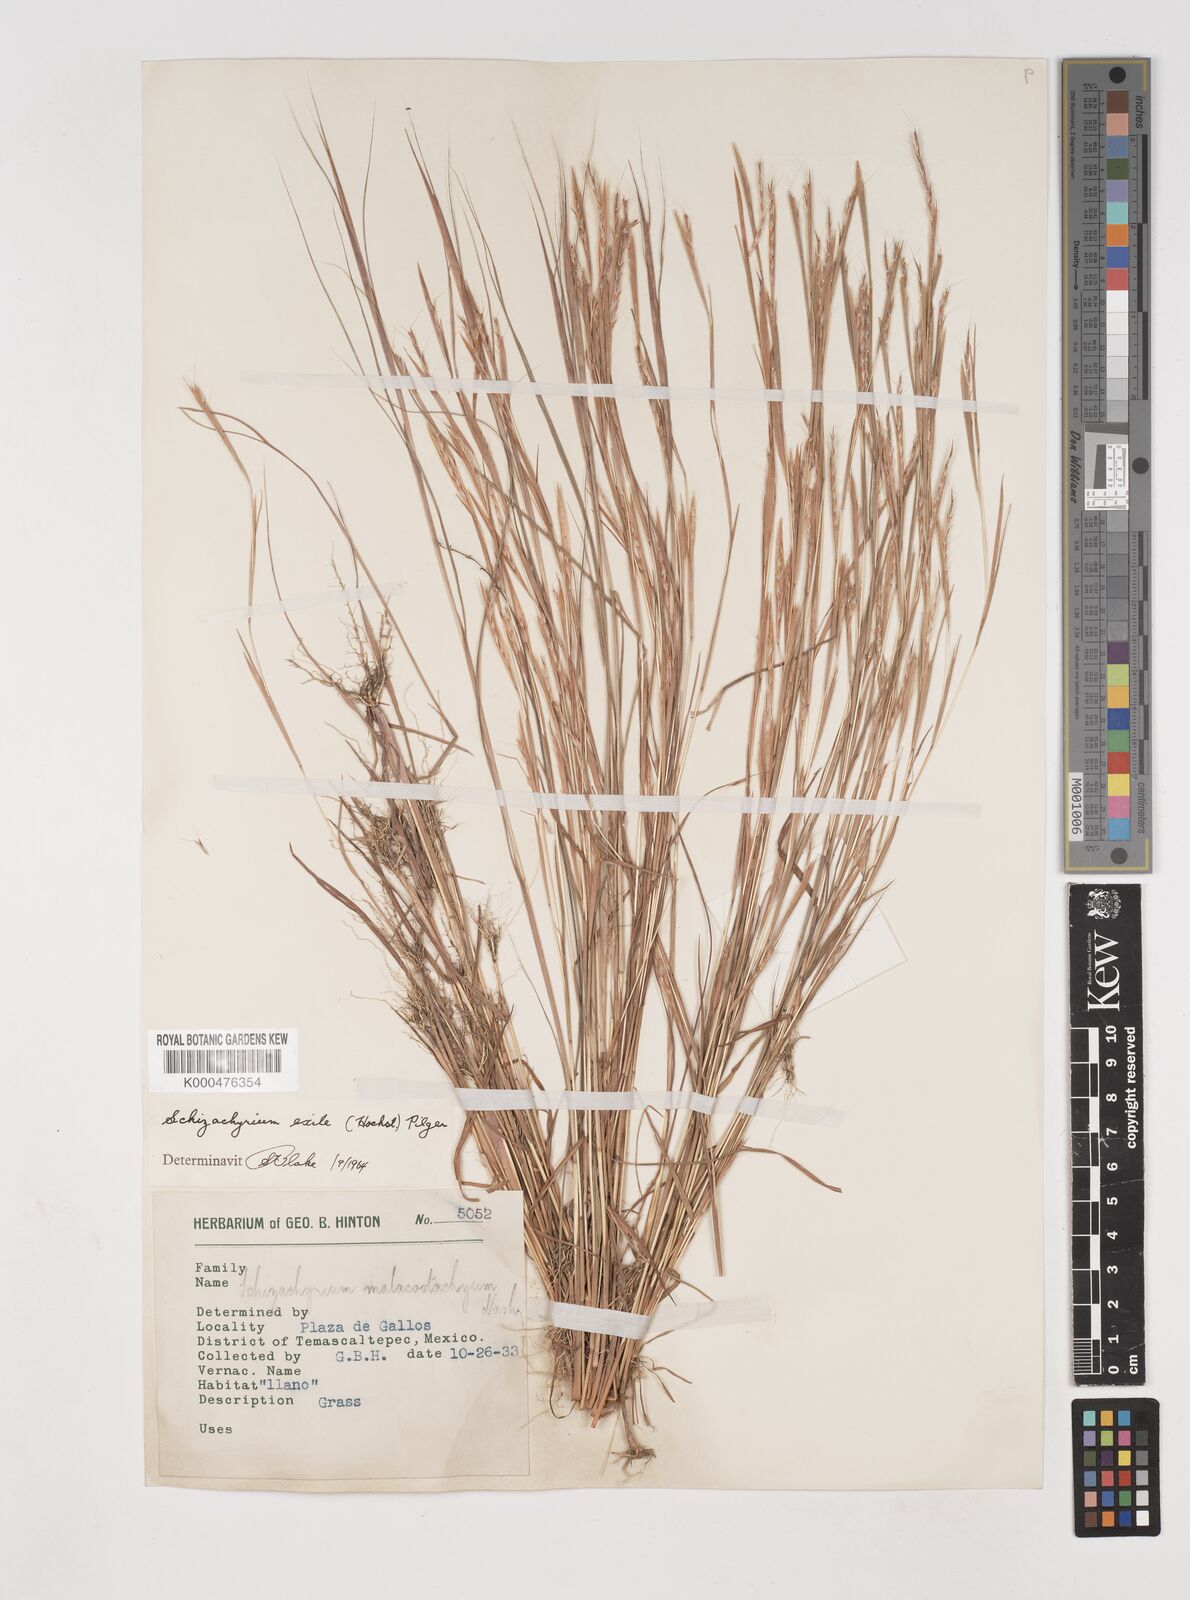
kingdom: Plantae
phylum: Tracheophyta
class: Liliopsida
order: Poales
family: Poaceae
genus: Schizachyrium
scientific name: Schizachyrium exile
